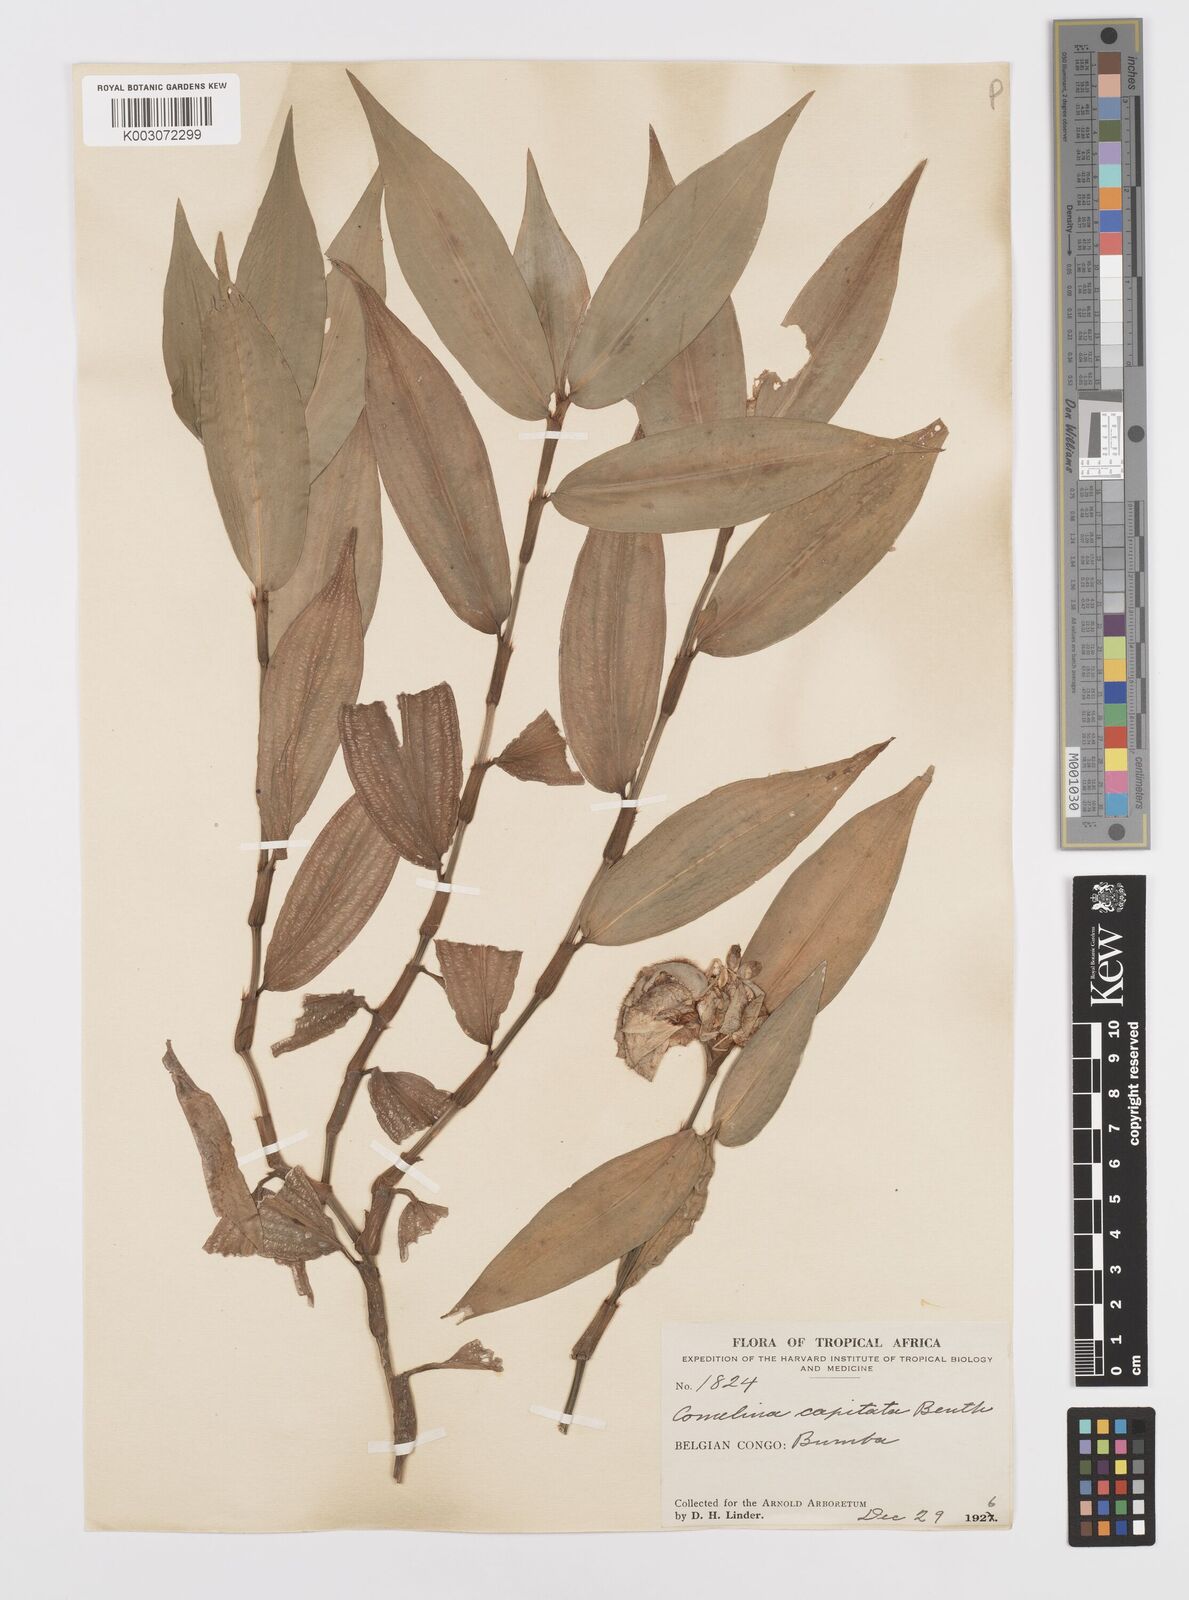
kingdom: Plantae
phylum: Tracheophyta
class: Liliopsida
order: Commelinales
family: Commelinaceae
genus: Commelina
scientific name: Commelina capitata
